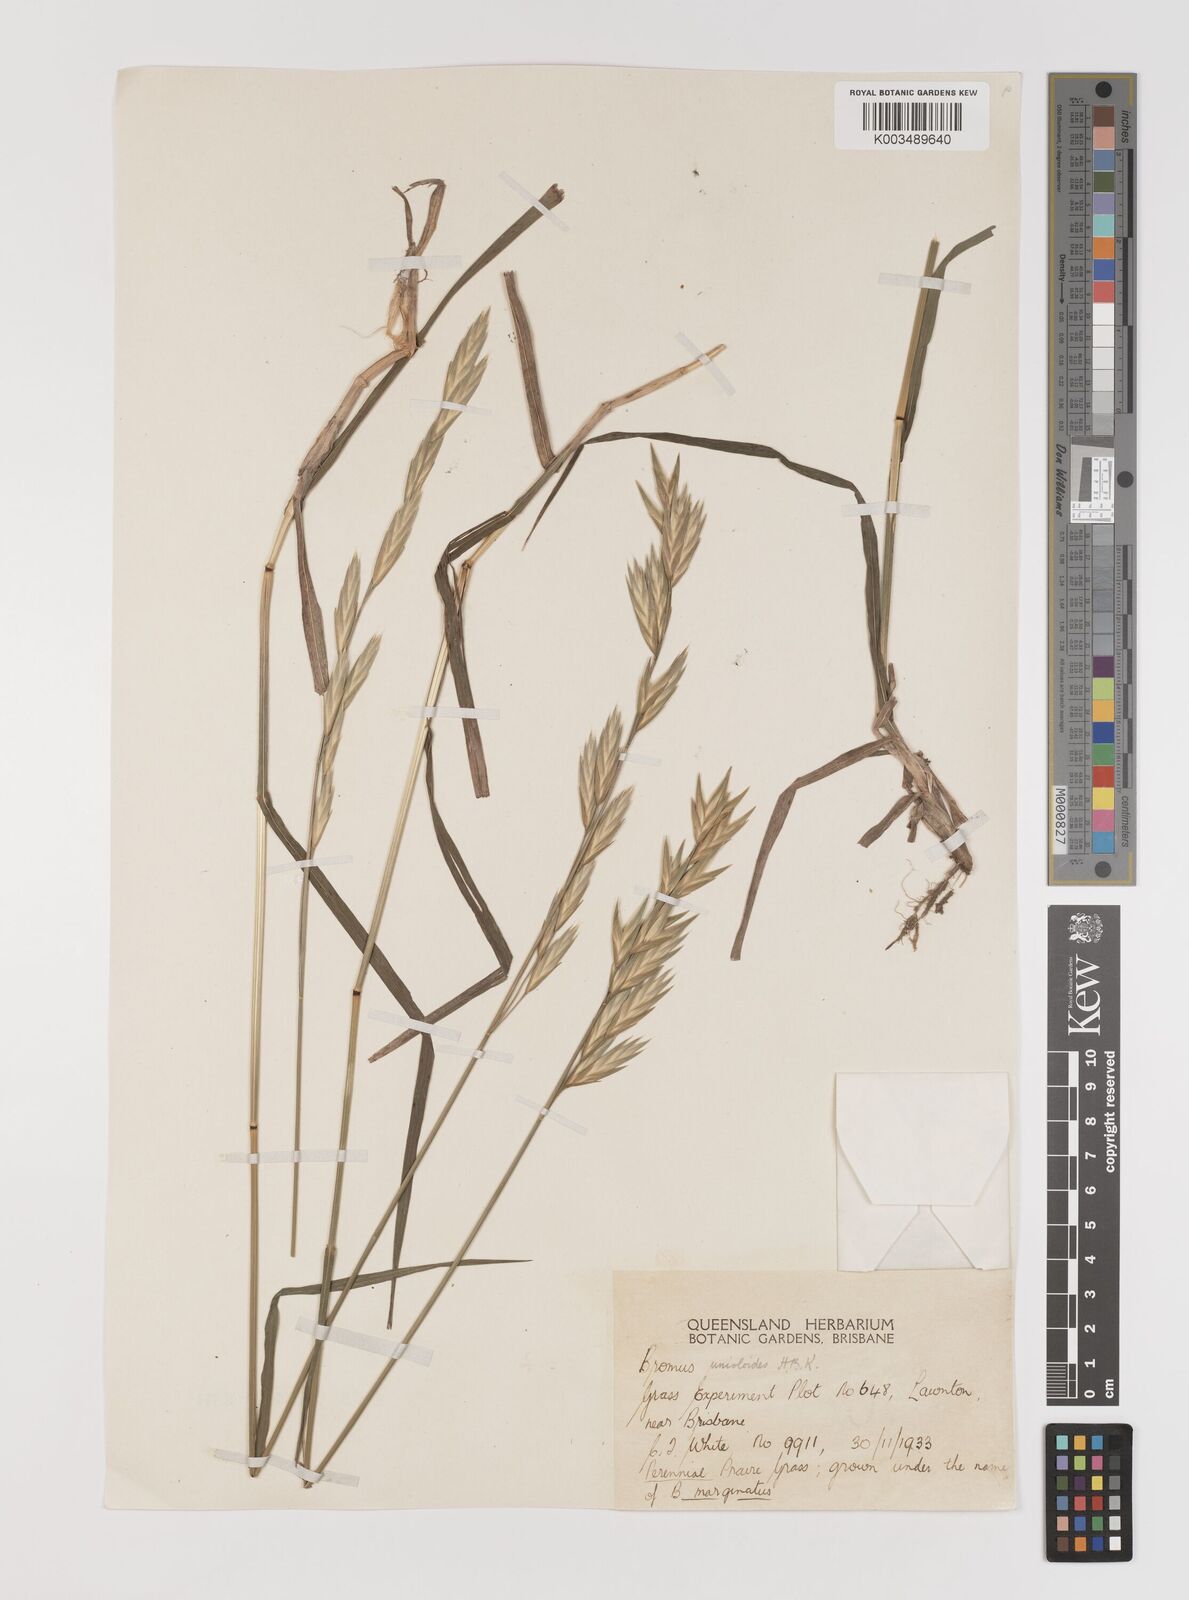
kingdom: Plantae
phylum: Tracheophyta
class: Liliopsida
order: Poales
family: Poaceae
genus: Bromus
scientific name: Bromus catharticus
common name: Rescuegrass
